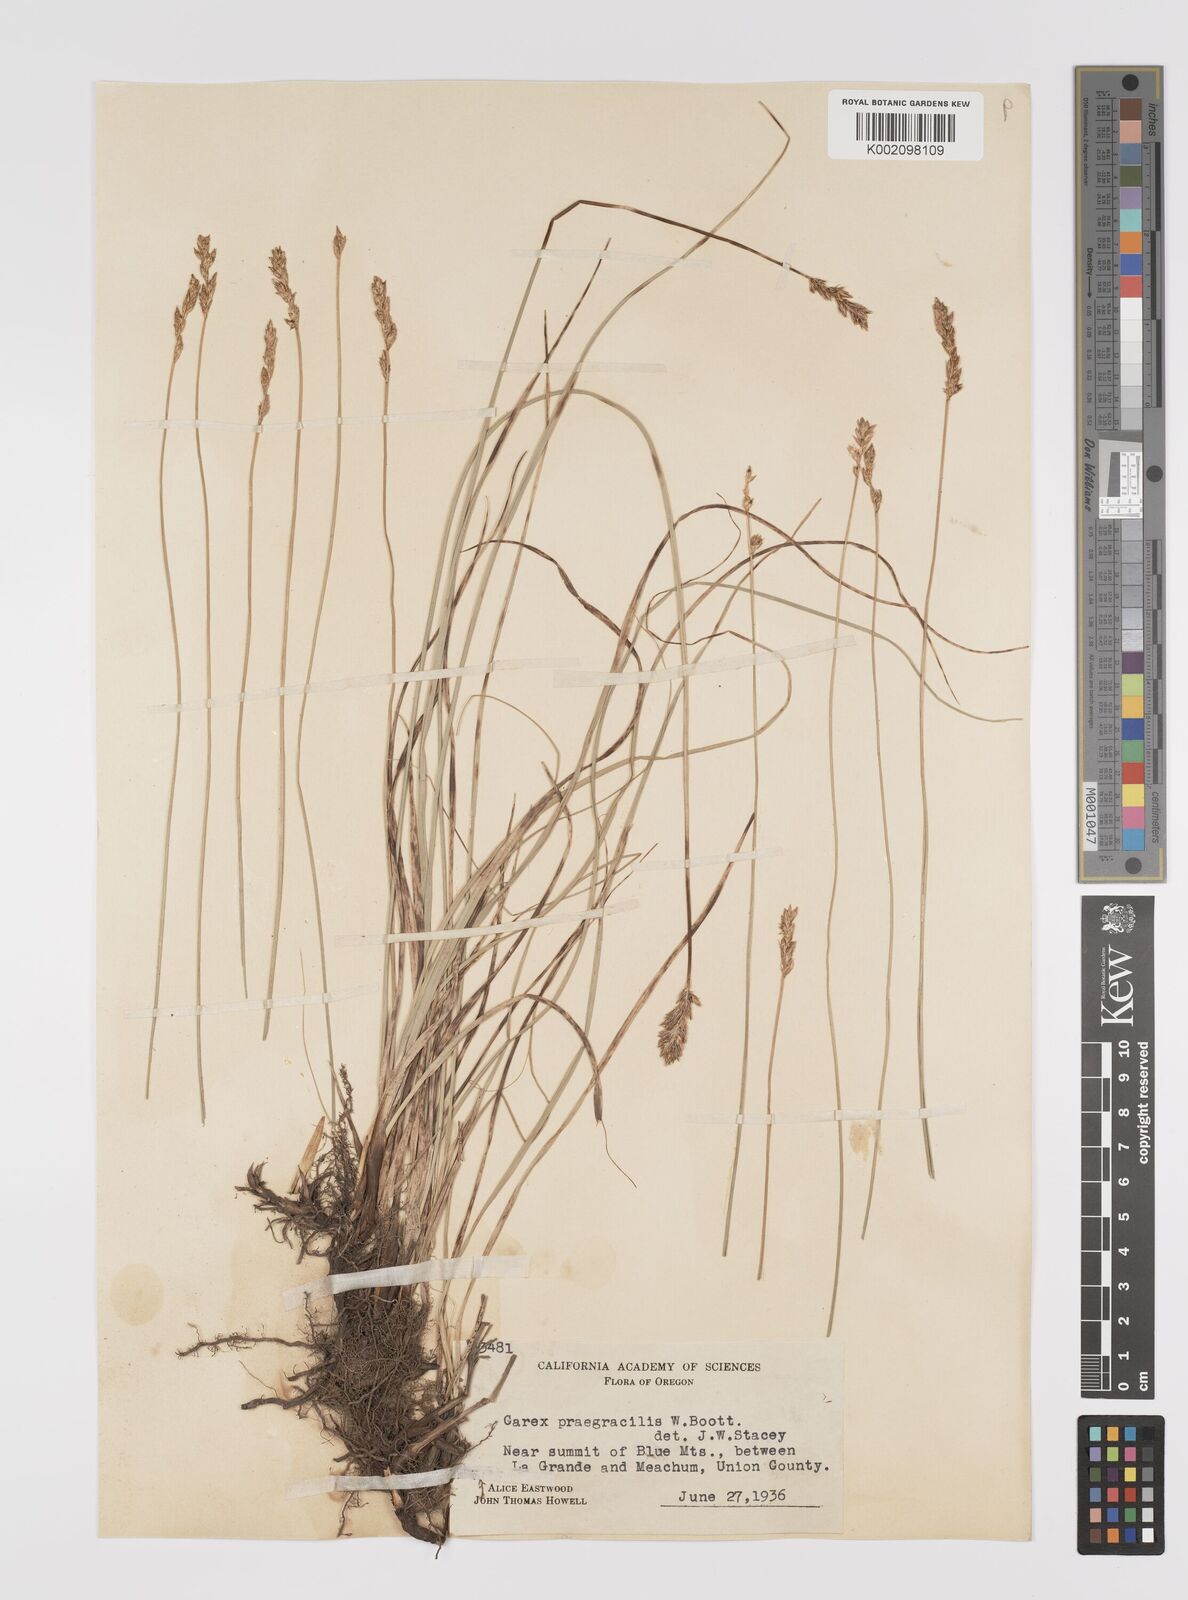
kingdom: Plantae
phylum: Tracheophyta
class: Liliopsida
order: Poales
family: Cyperaceae
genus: Carex
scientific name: Carex praegracilis
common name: Black creeper sedge
